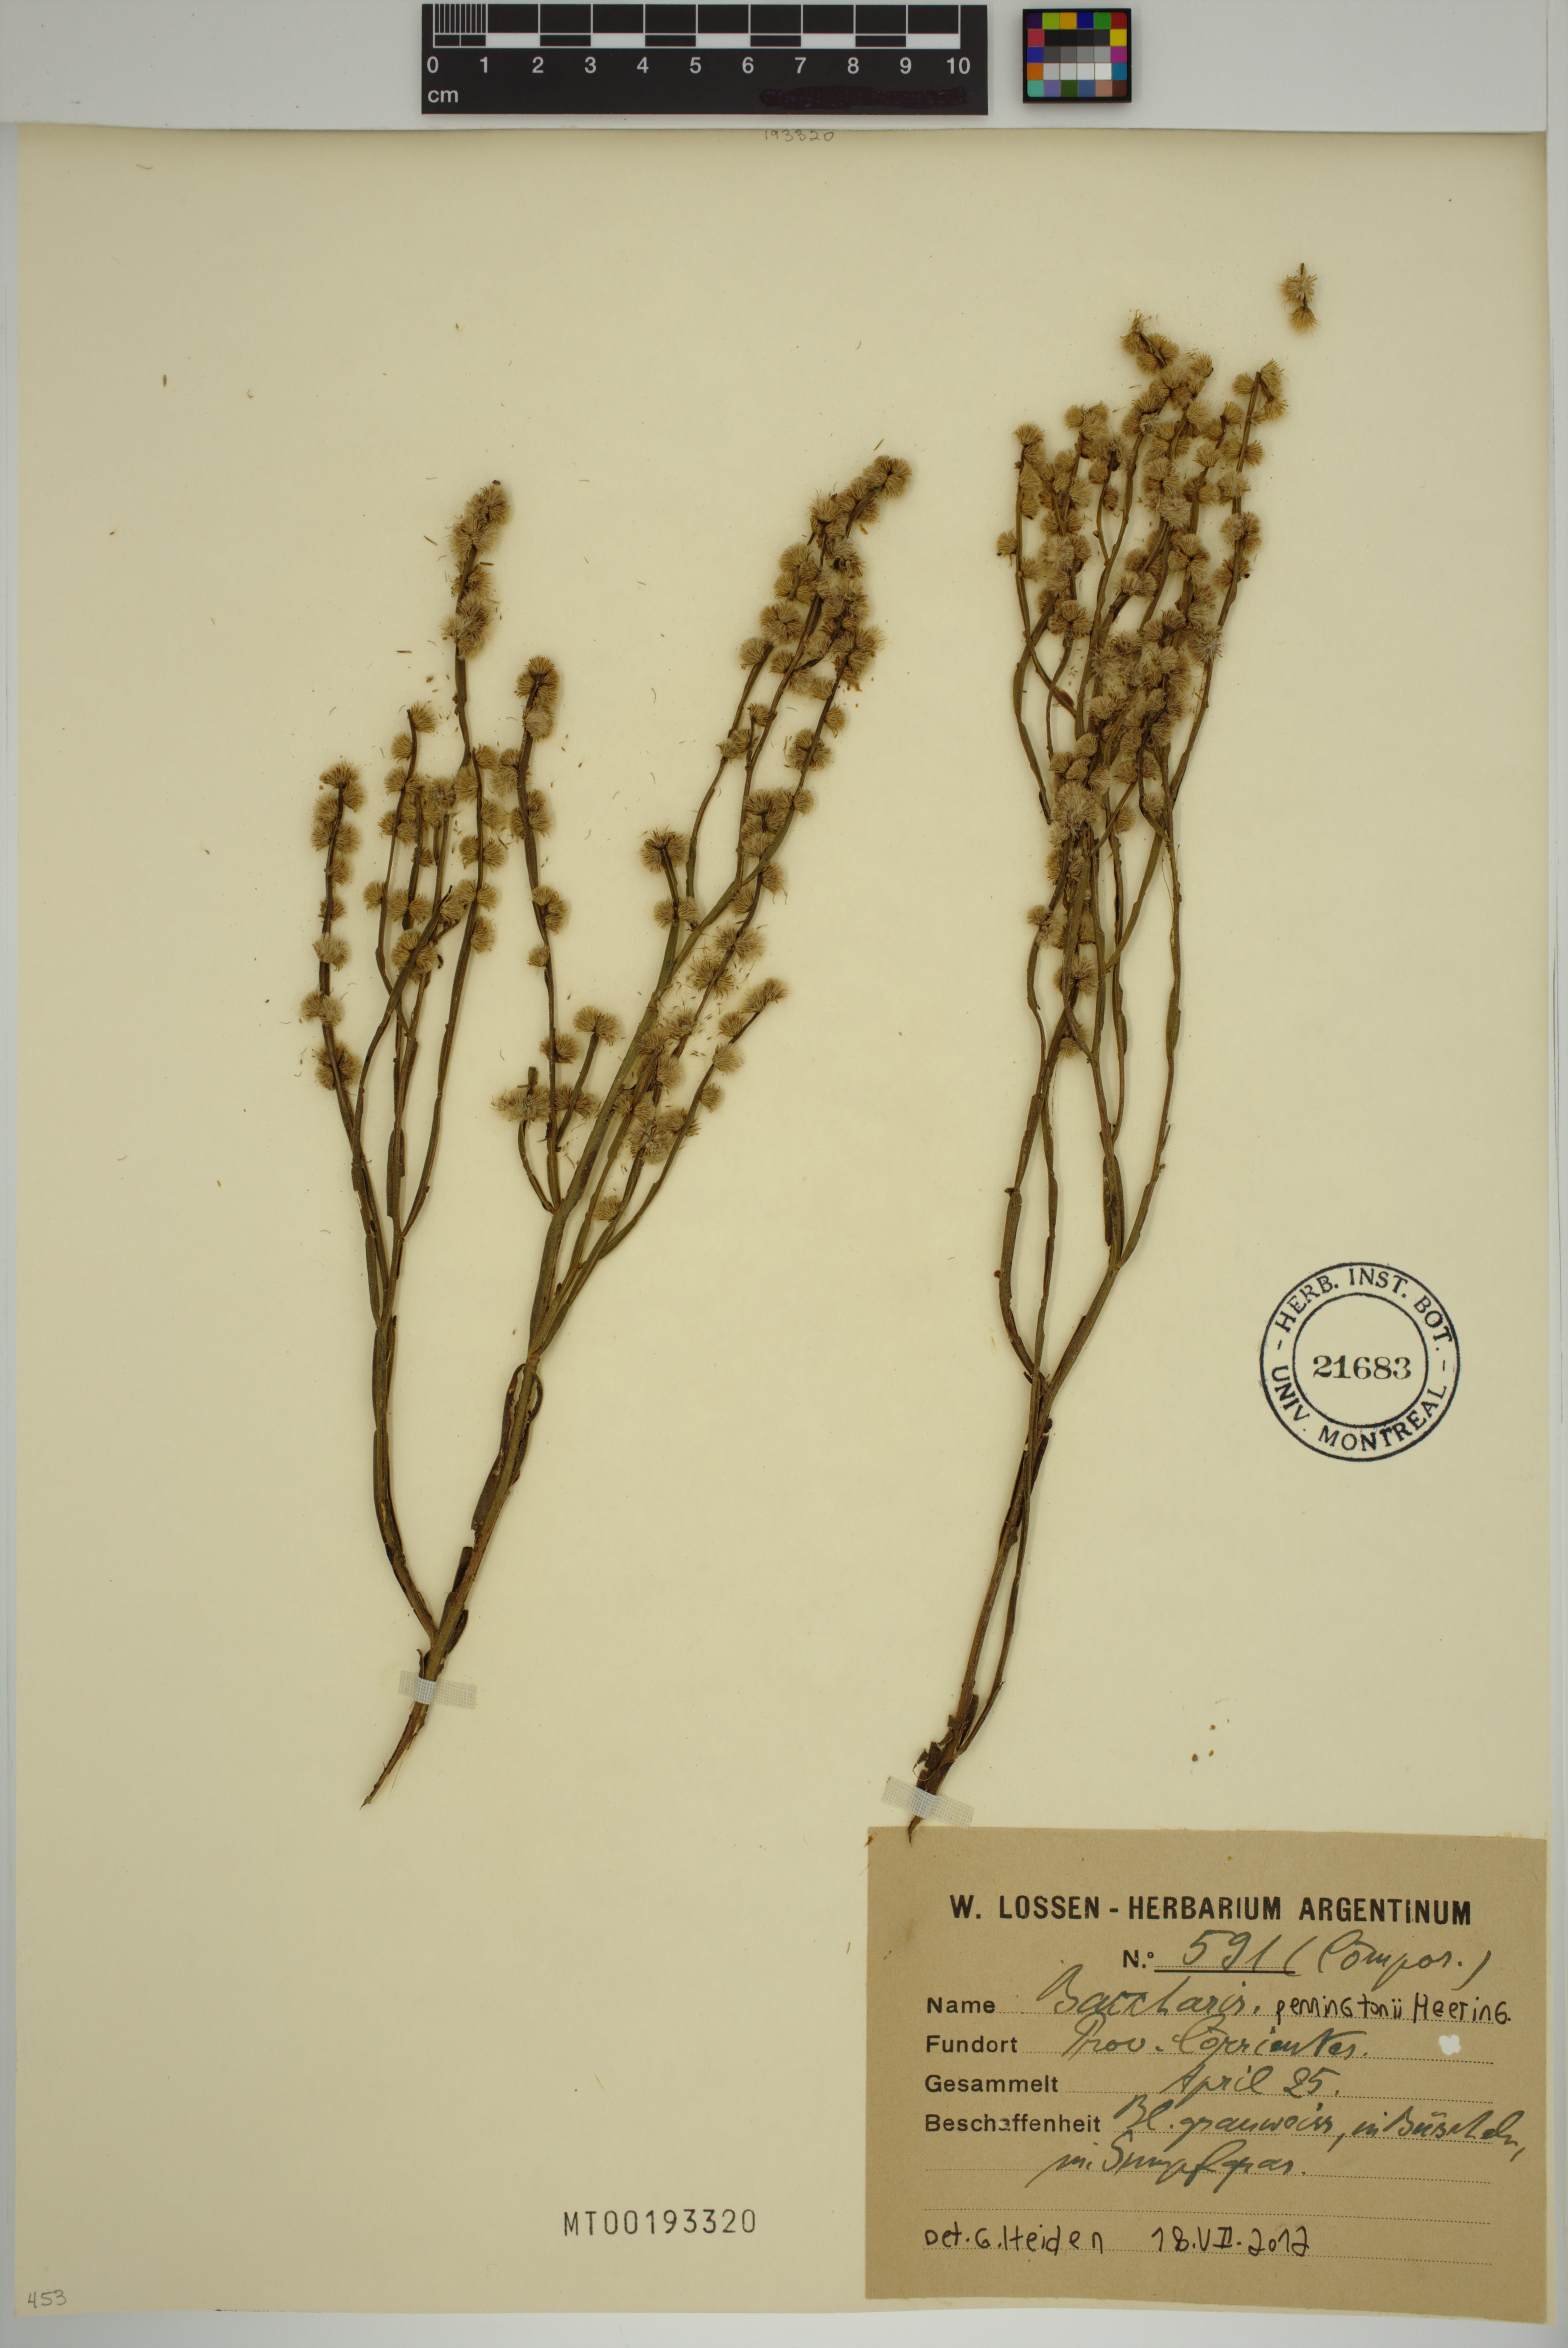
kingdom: Plantae
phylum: Tracheophyta
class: Magnoliopsida
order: Asterales
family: Asteraceae
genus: Baccharis
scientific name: Baccharis penningtonii
